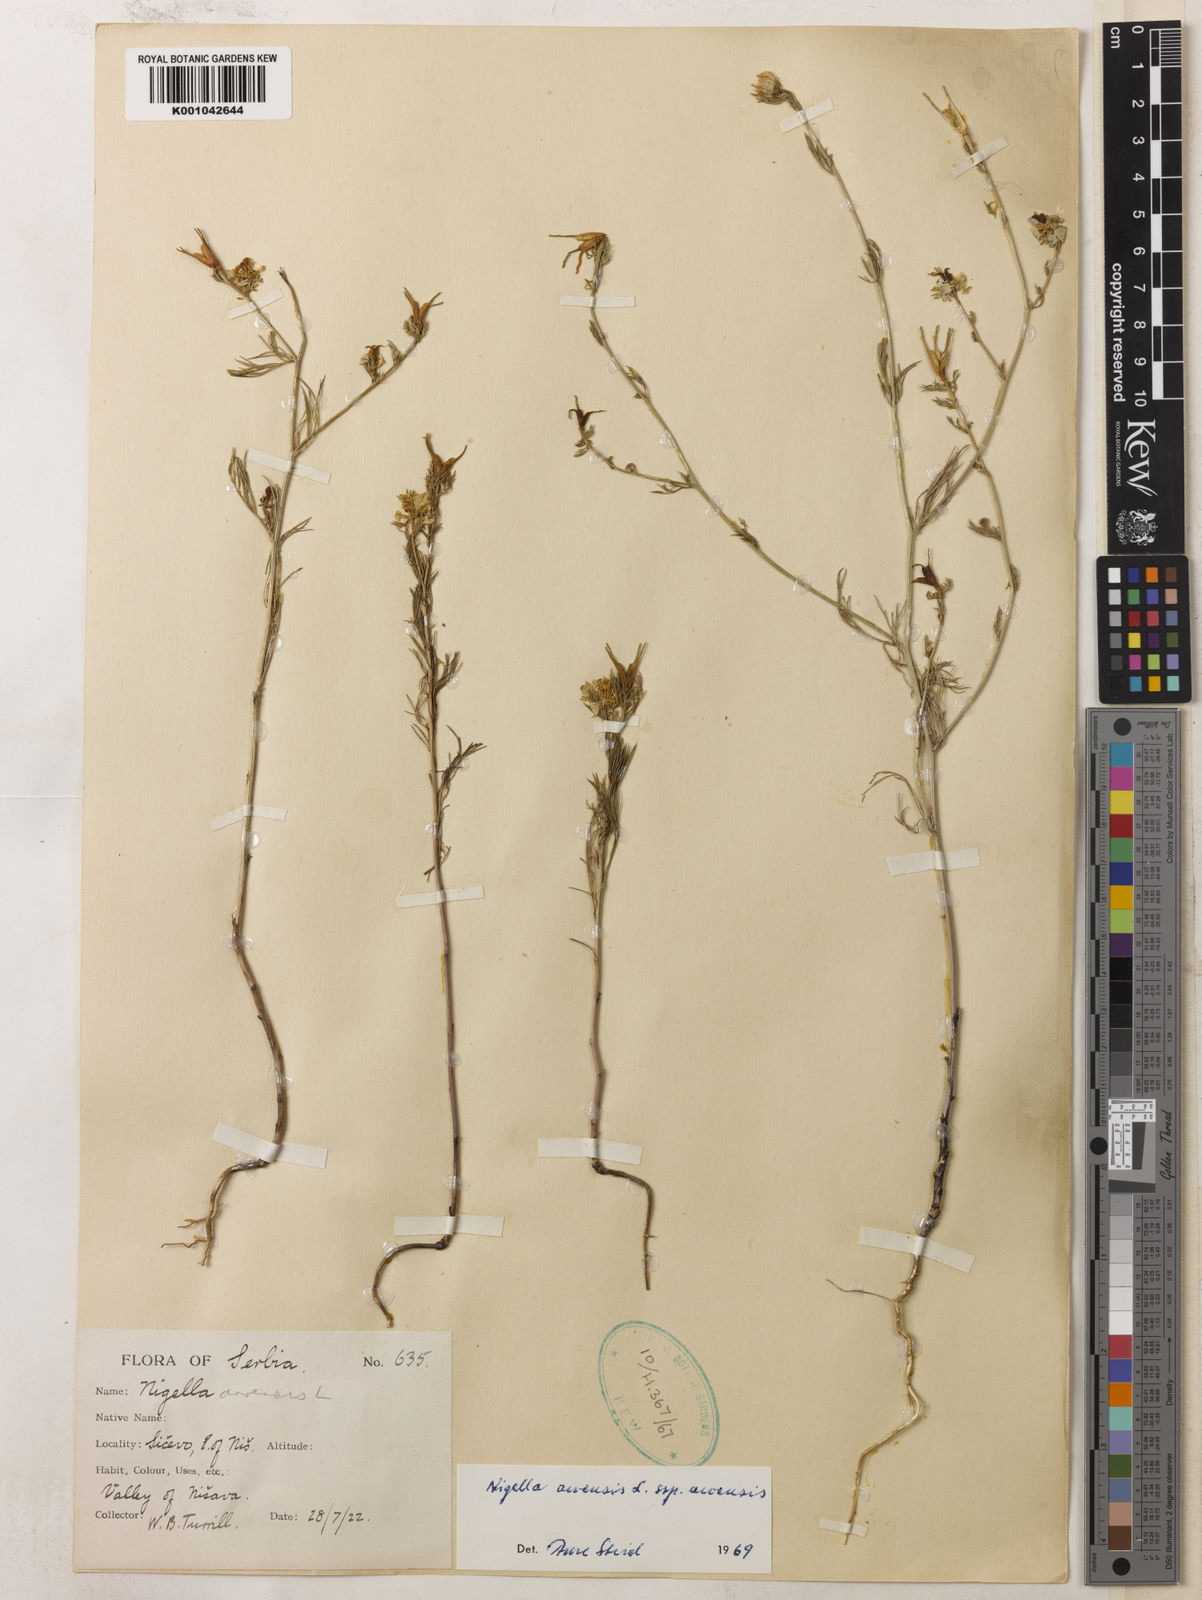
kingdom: Plantae
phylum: Tracheophyta
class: Magnoliopsida
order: Ranunculales
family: Ranunculaceae
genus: Nigella
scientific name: Nigella arvensis
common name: Wild fennel-flower
